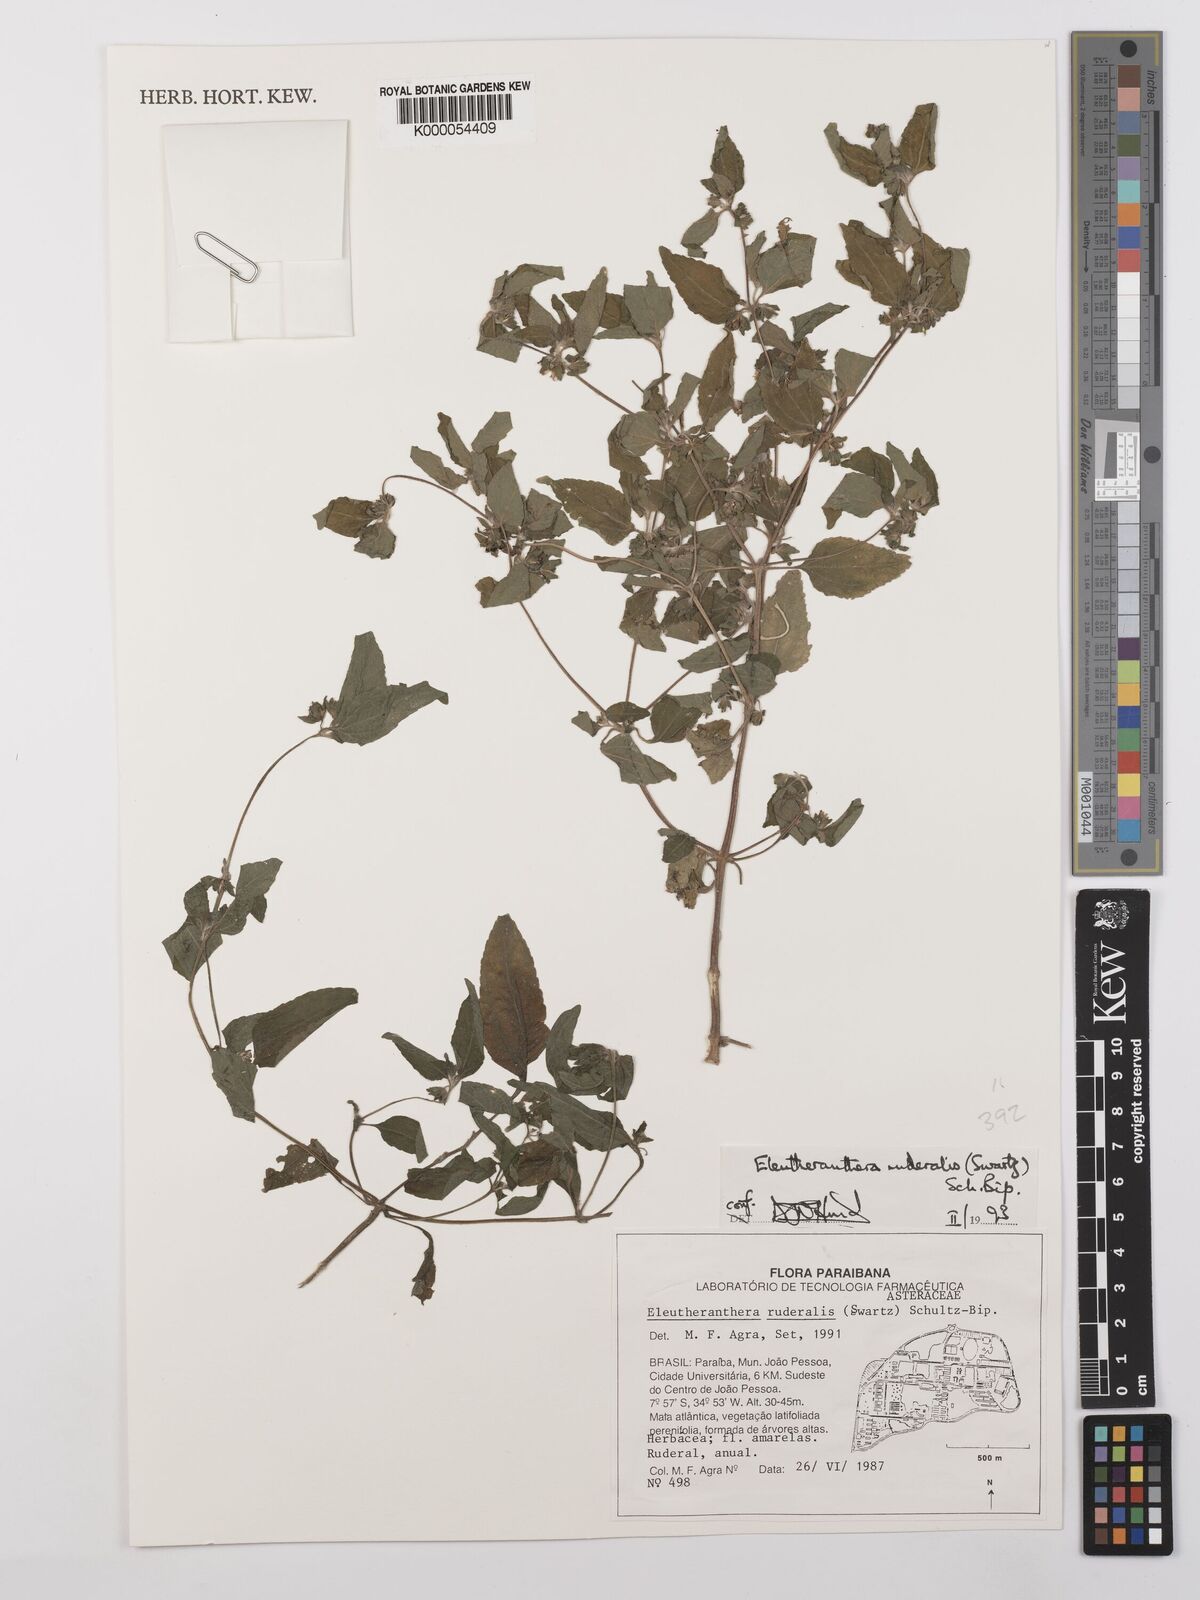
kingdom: Plantae
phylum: Tracheophyta
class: Magnoliopsida
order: Asterales
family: Asteraceae
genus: Eleutheranthera
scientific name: Eleutheranthera ruderalis
